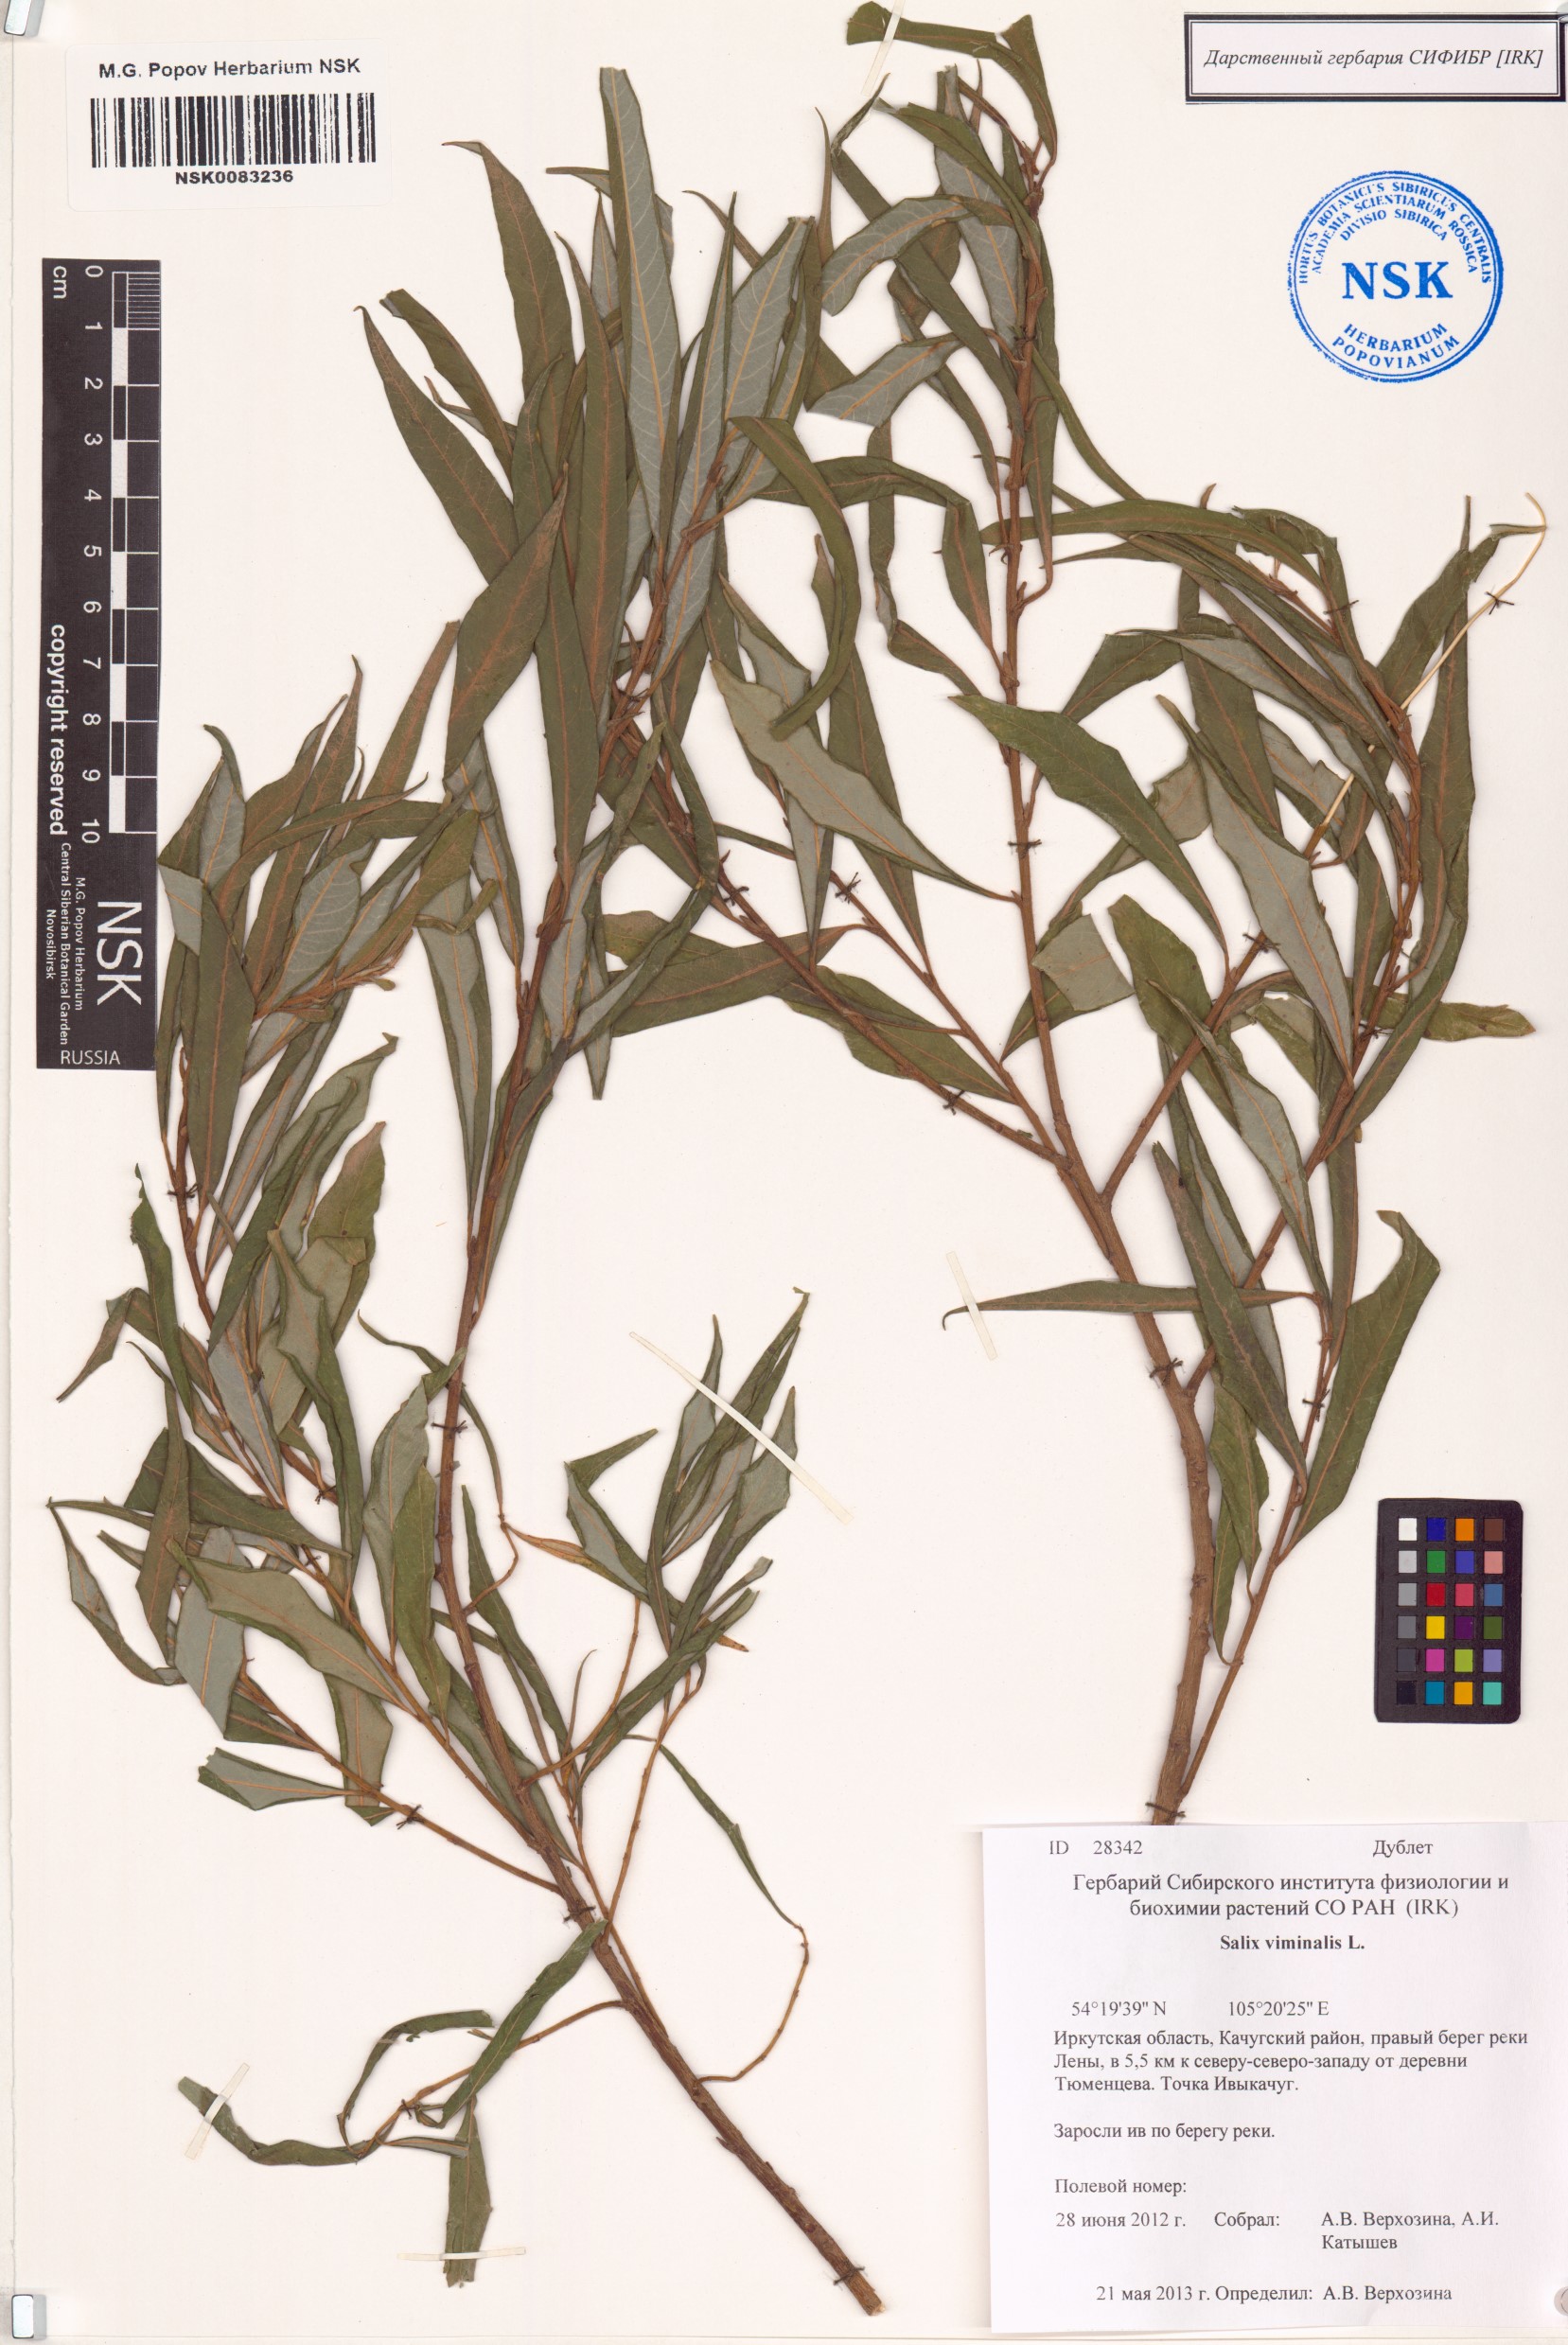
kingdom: Plantae
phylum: Tracheophyta
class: Magnoliopsida
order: Malpighiales
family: Salicaceae
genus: Salix
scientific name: Salix viminalis
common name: Osier
